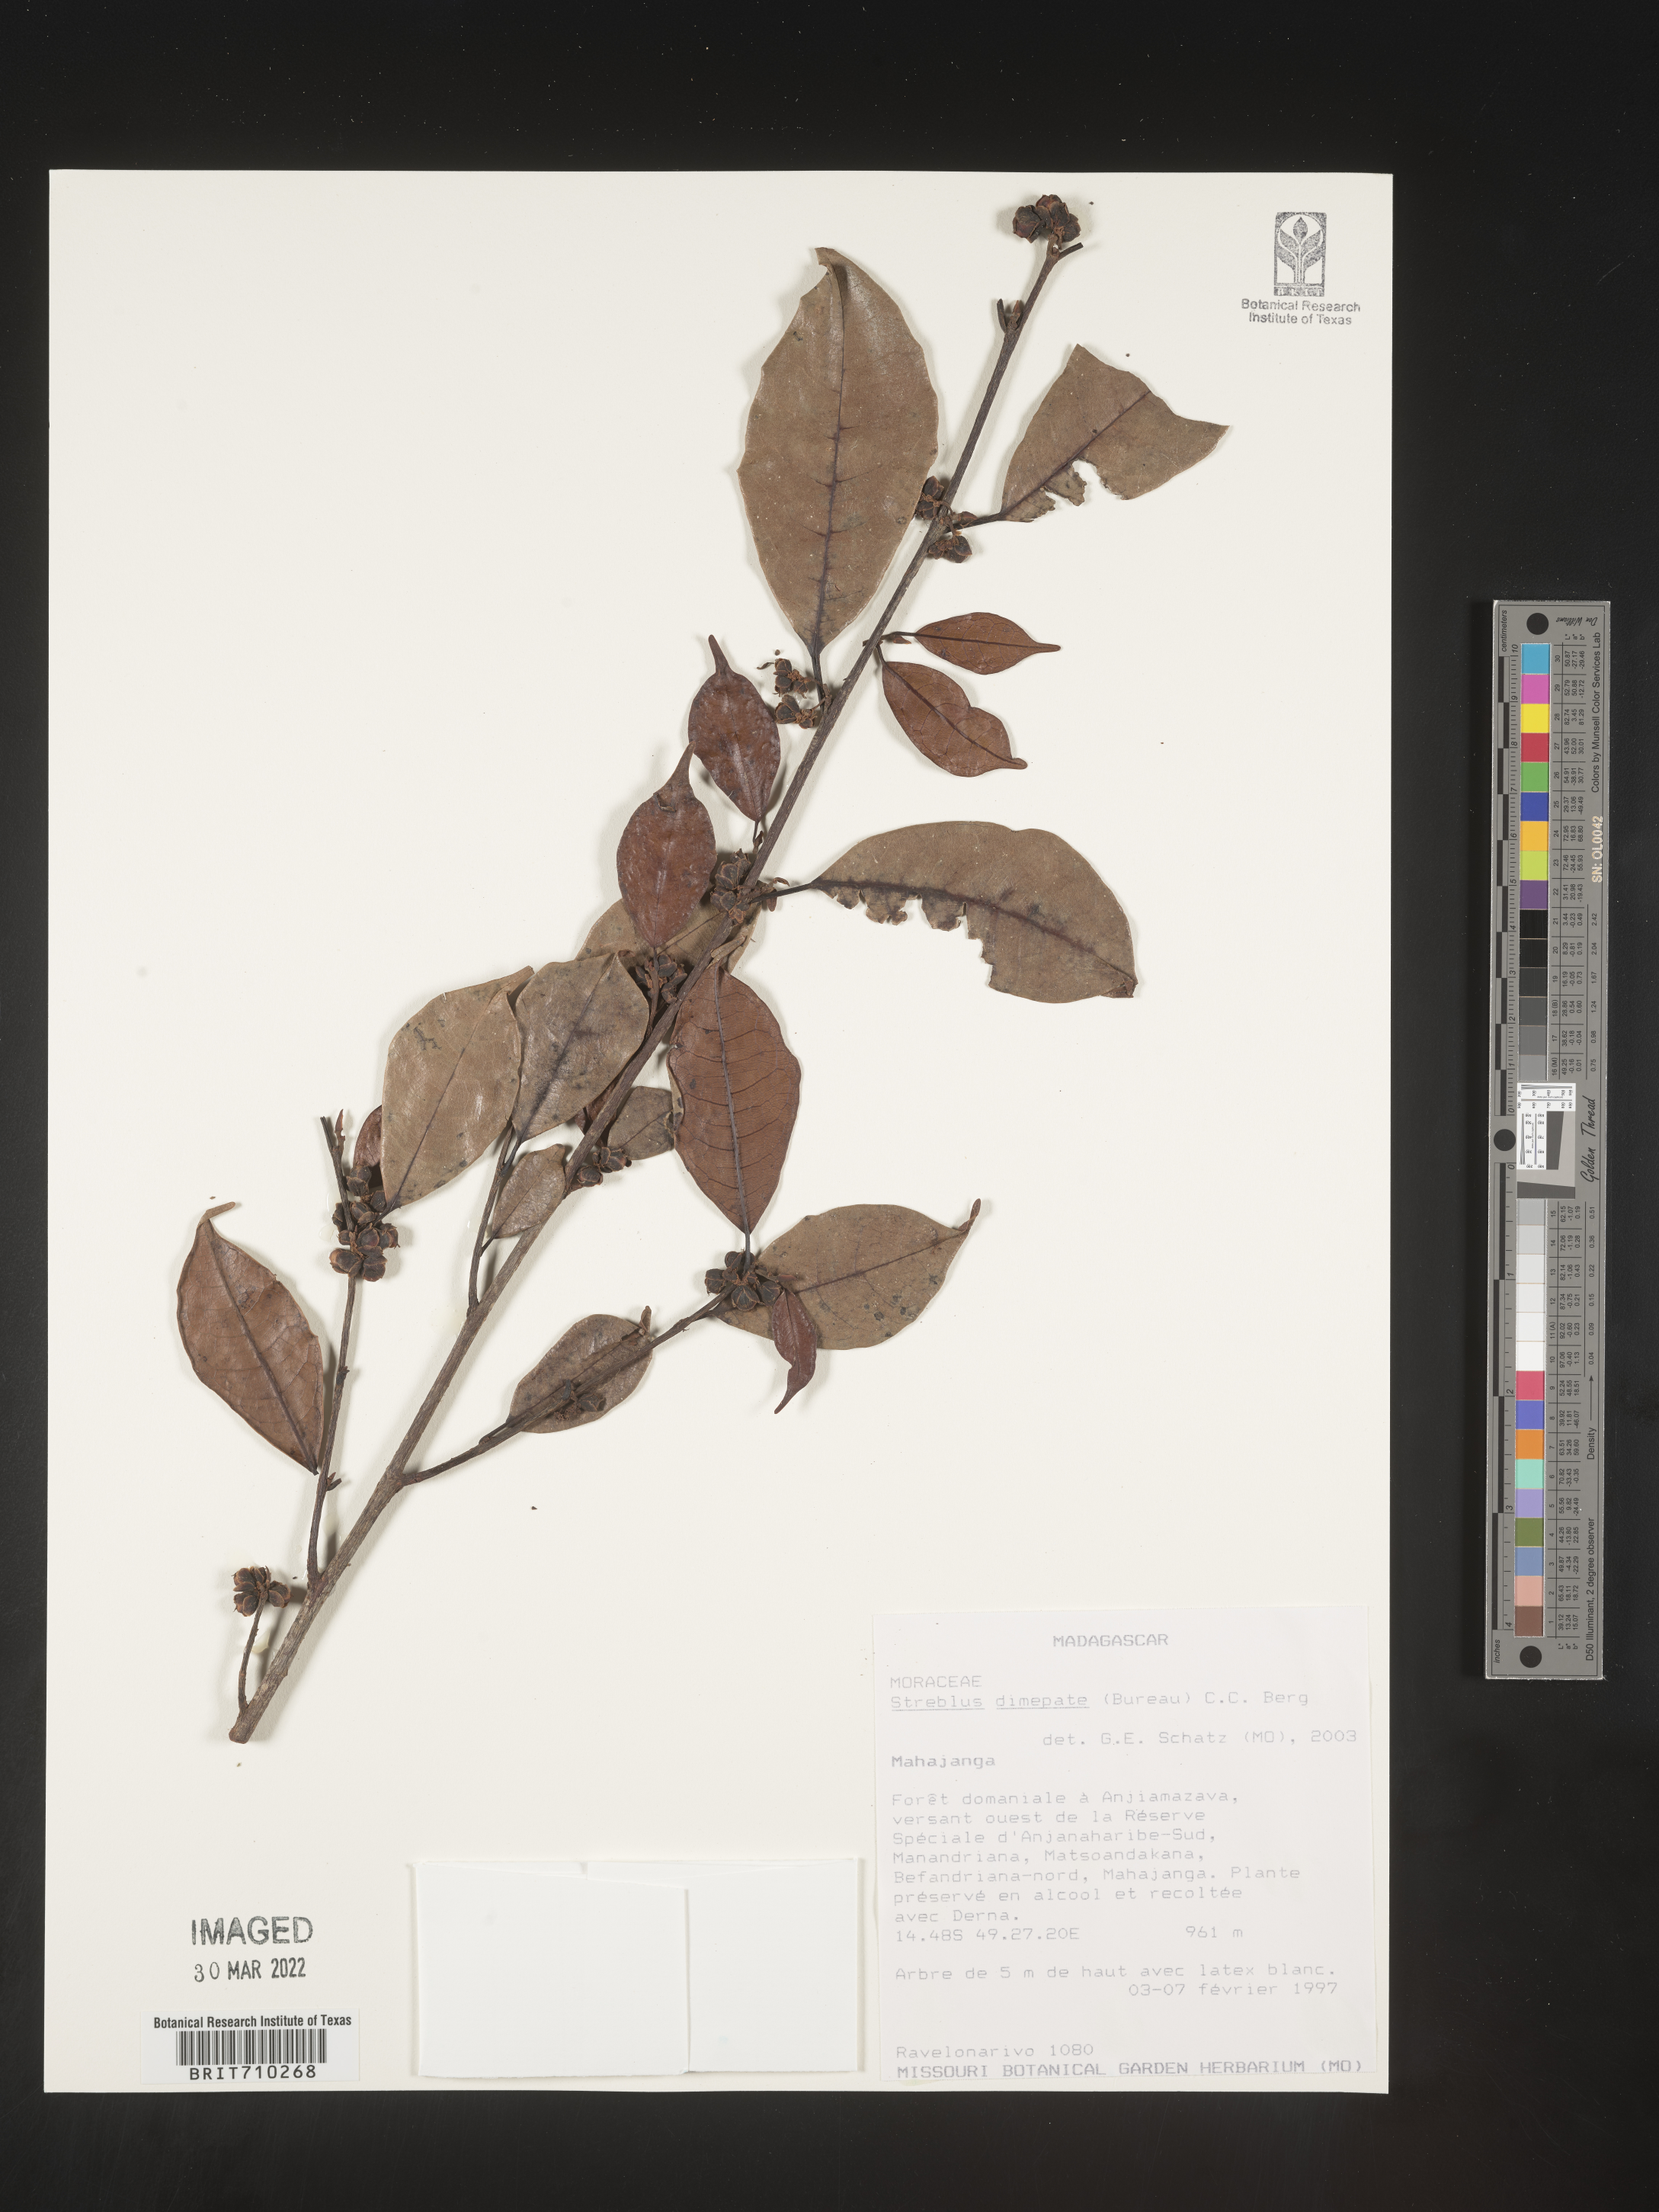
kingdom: Plantae
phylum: Tracheophyta
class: Magnoliopsida
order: Rosales
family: Moraceae
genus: Streblus
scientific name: Streblus
